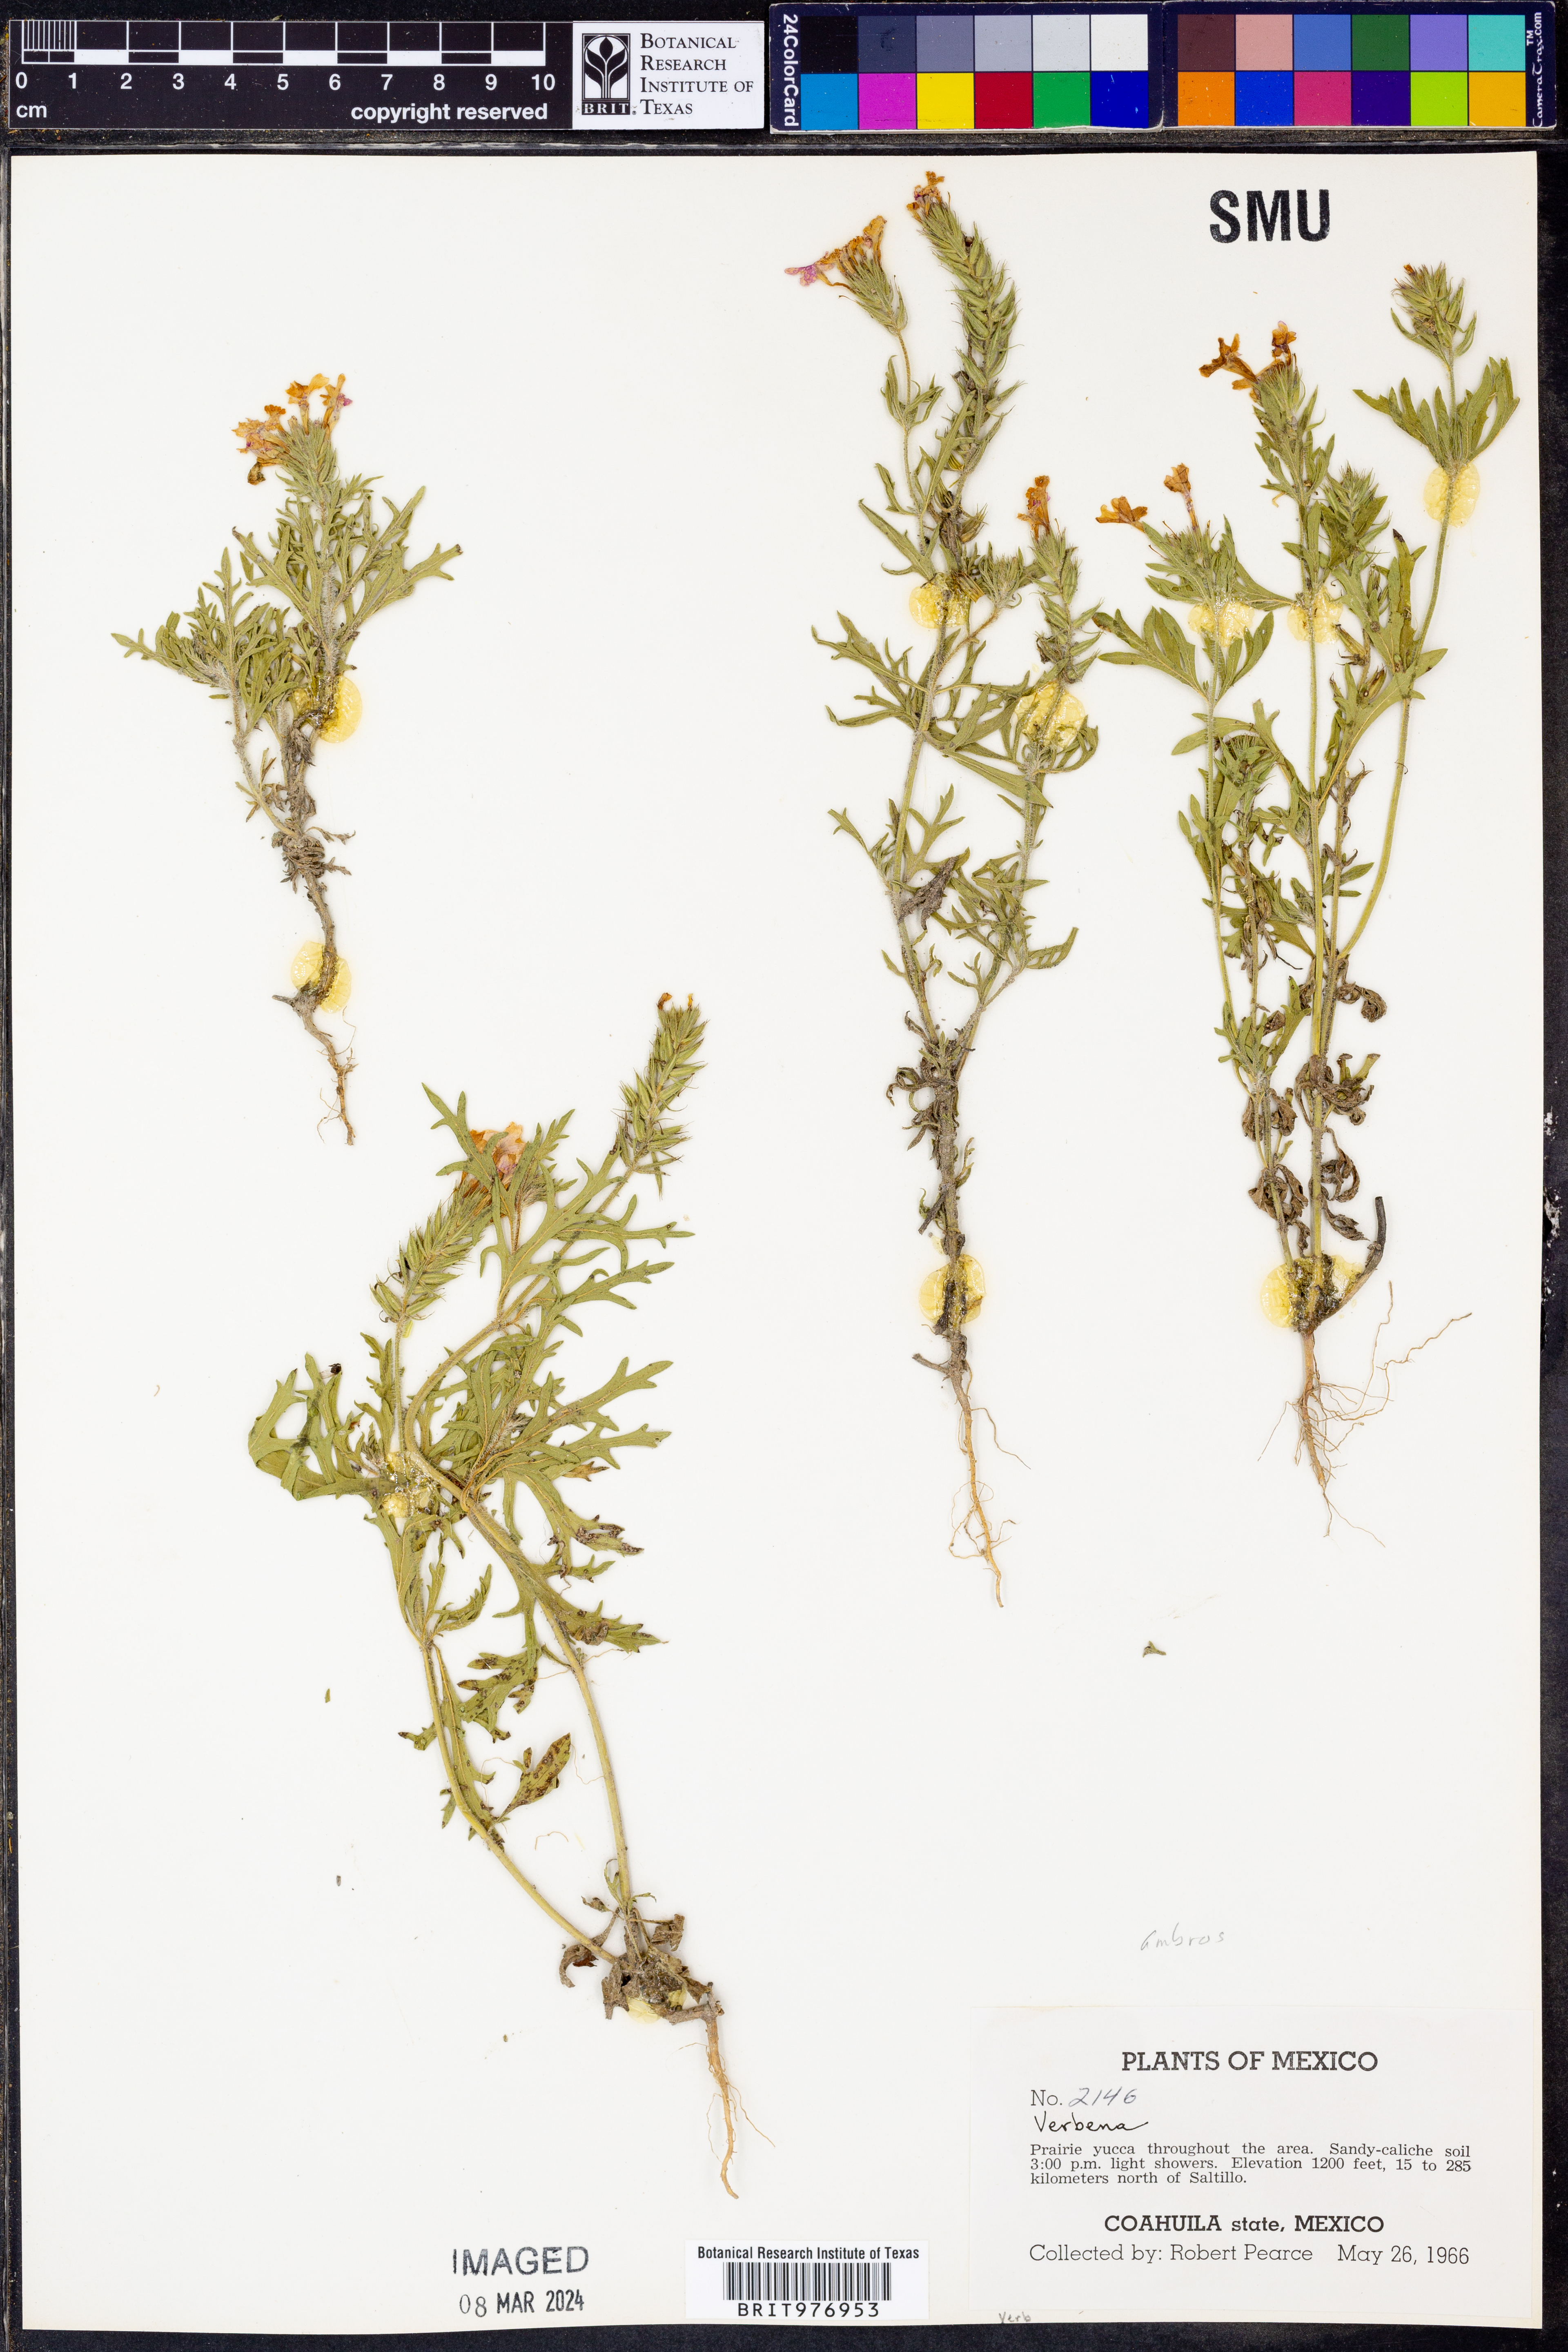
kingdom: Plantae
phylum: Tracheophyta
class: Magnoliopsida
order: Lamiales
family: Verbenaceae
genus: Verbena
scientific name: Verbena
